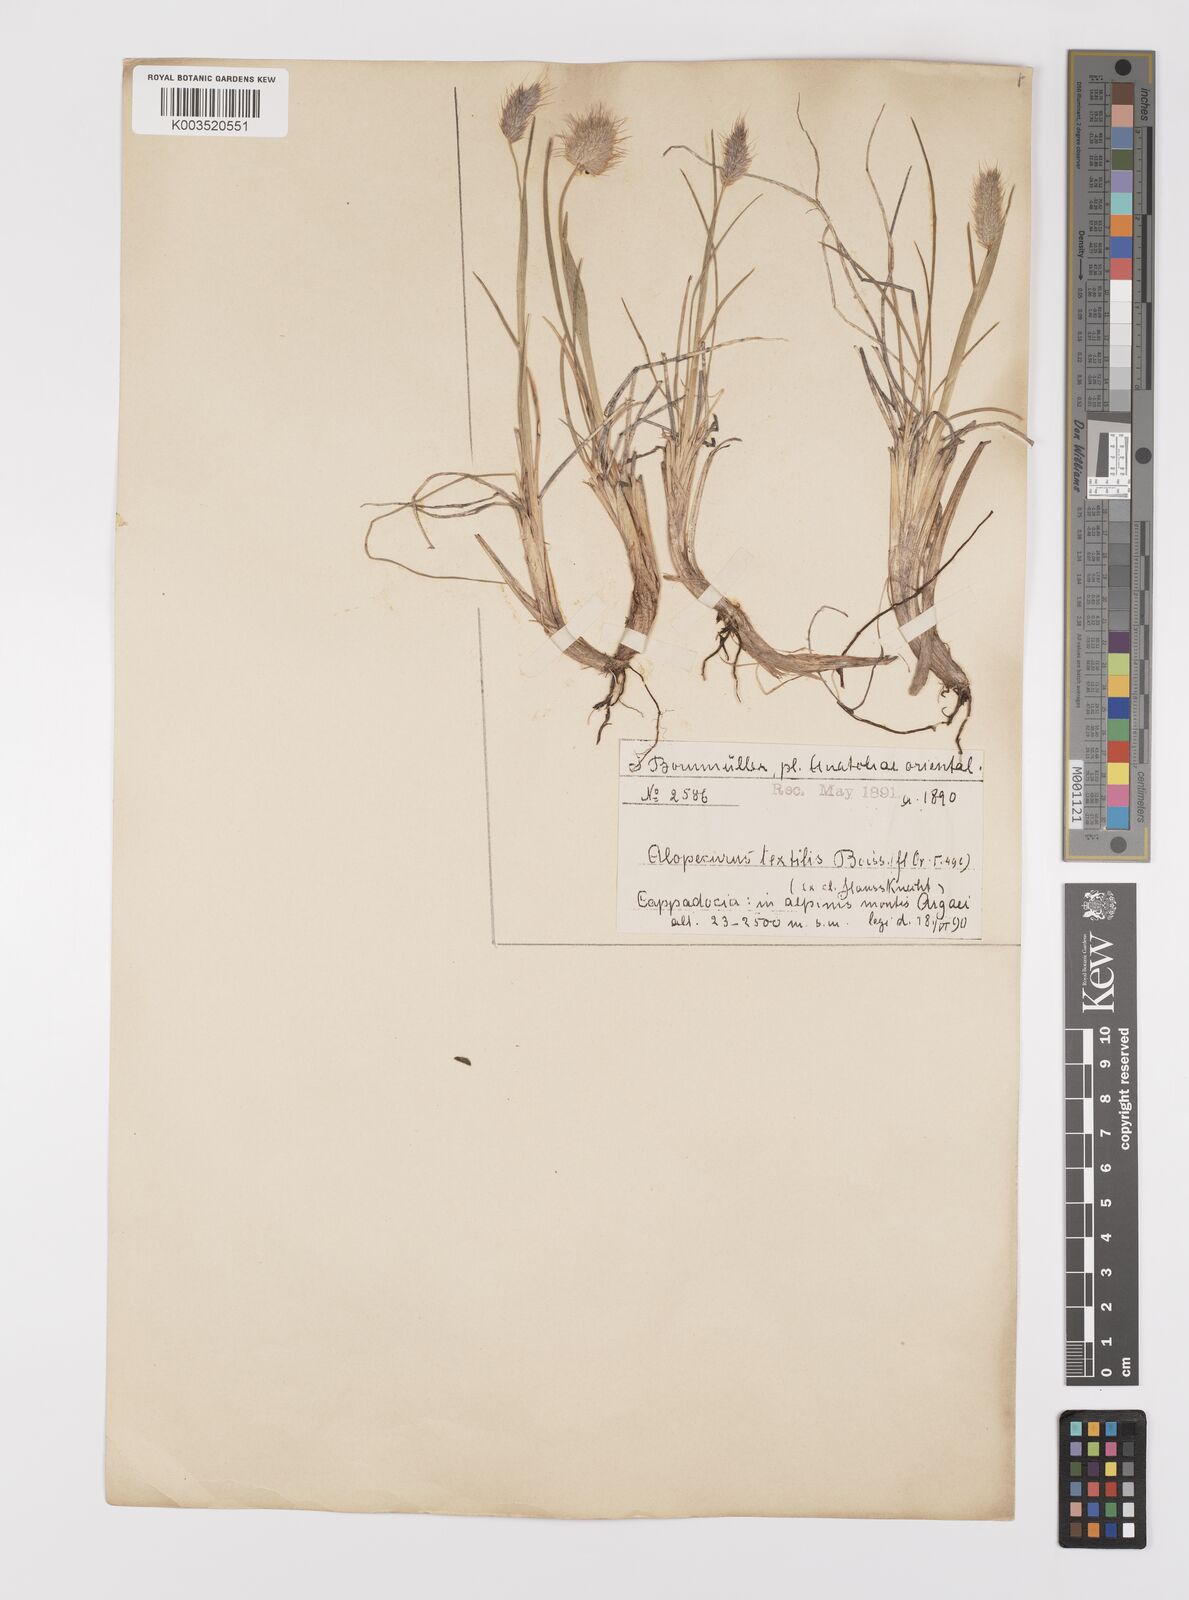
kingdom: Plantae
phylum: Tracheophyta
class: Liliopsida
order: Poales
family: Poaceae
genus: Alopecurus
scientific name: Alopecurus textilis
